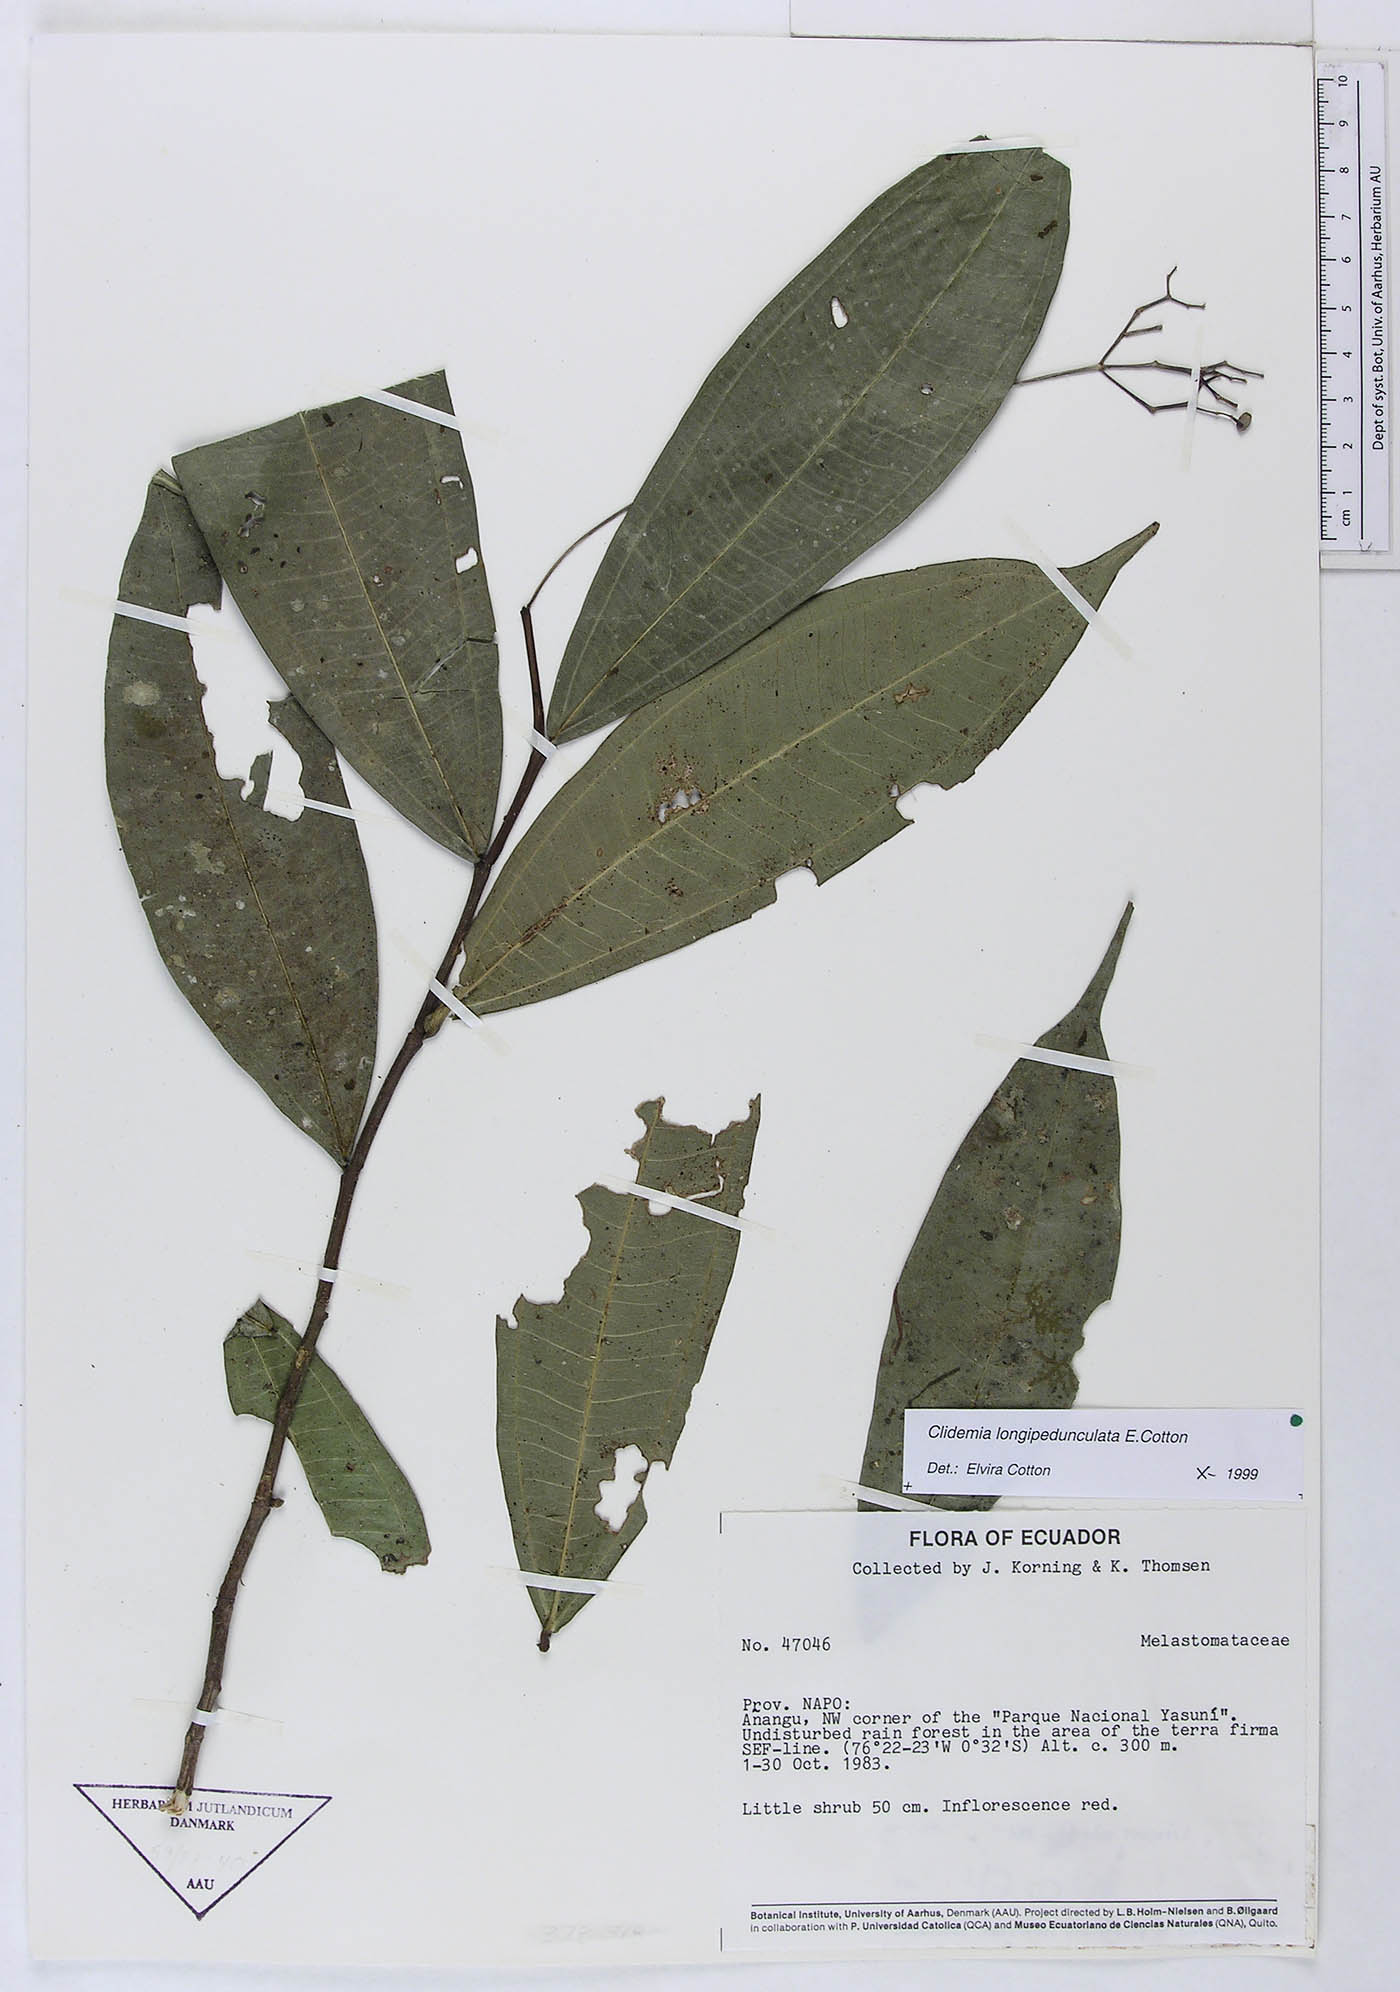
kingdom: Plantae
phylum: Tracheophyta
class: Magnoliopsida
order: Myrtales
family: Melastomataceae
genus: Miconia
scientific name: Miconia cottoniana
